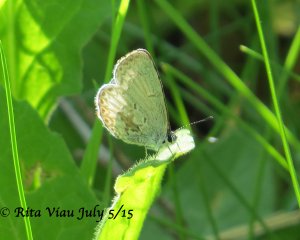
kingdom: Animalia
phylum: Arthropoda
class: Insecta
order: Lepidoptera
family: Lycaenidae
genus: Celastrina
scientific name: Celastrina
